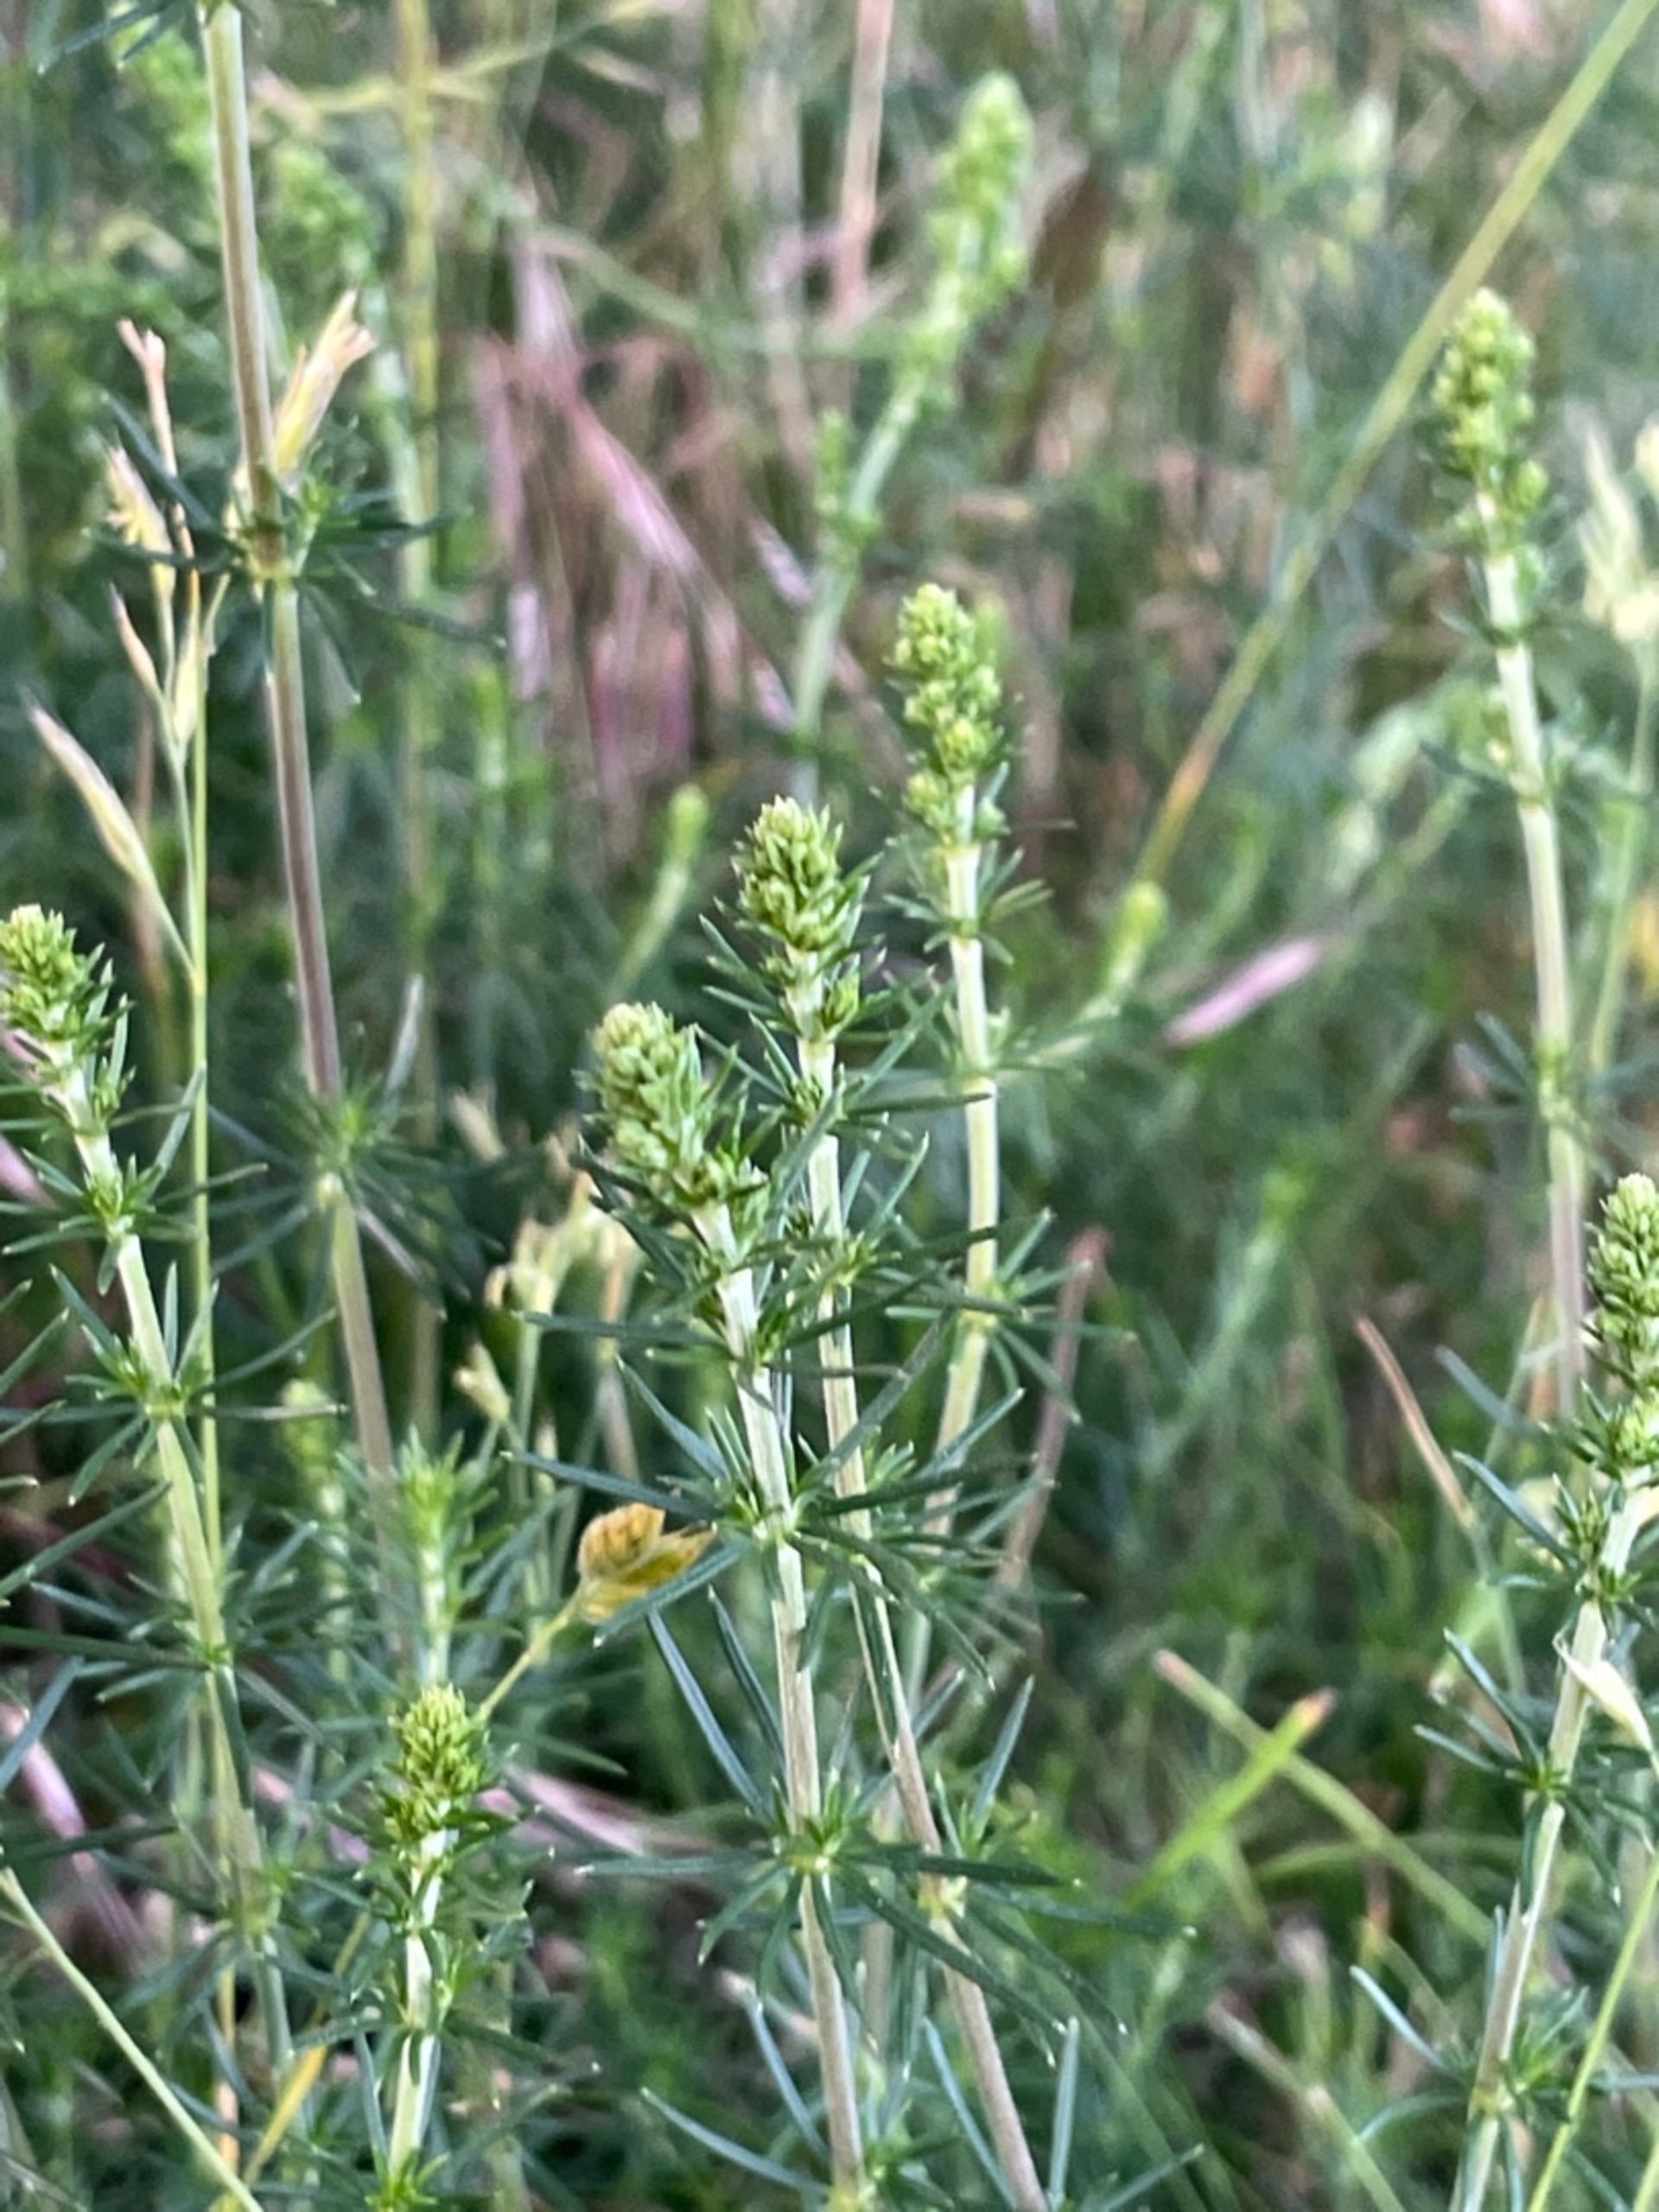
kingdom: Plantae
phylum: Tracheophyta
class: Magnoliopsida
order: Gentianales
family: Rubiaceae
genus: Galium
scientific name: Galium verum
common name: Gul snerre
